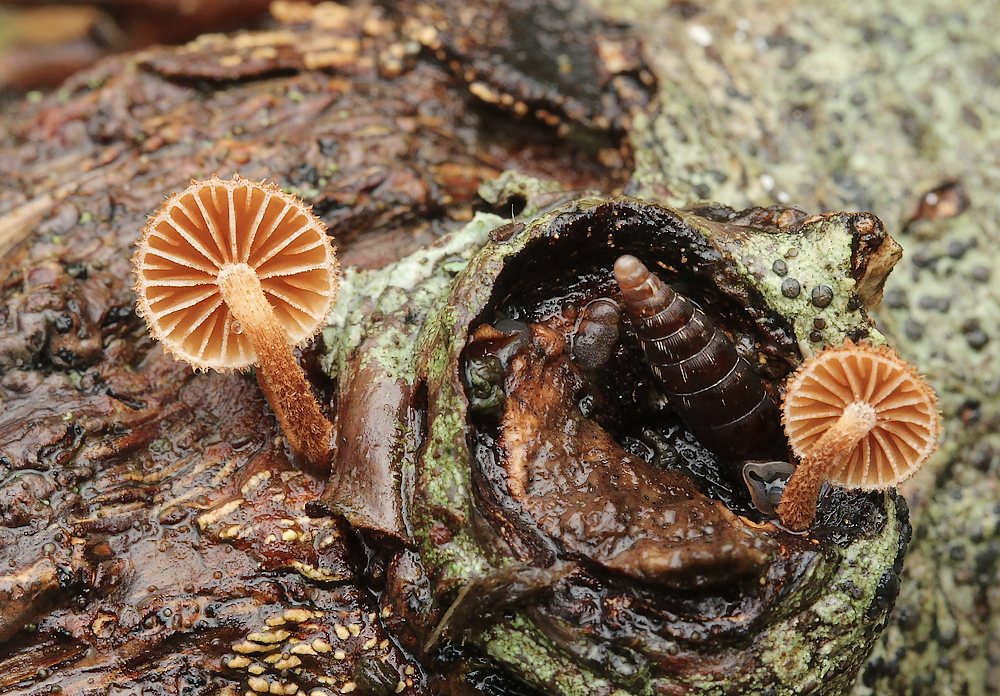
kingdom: Fungi
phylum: Basidiomycota
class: Agaricomycetes
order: Agaricales
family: Tubariaceae
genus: Phaeomarasmius
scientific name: Phaeomarasmius erinaceus
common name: spidsskælhat
